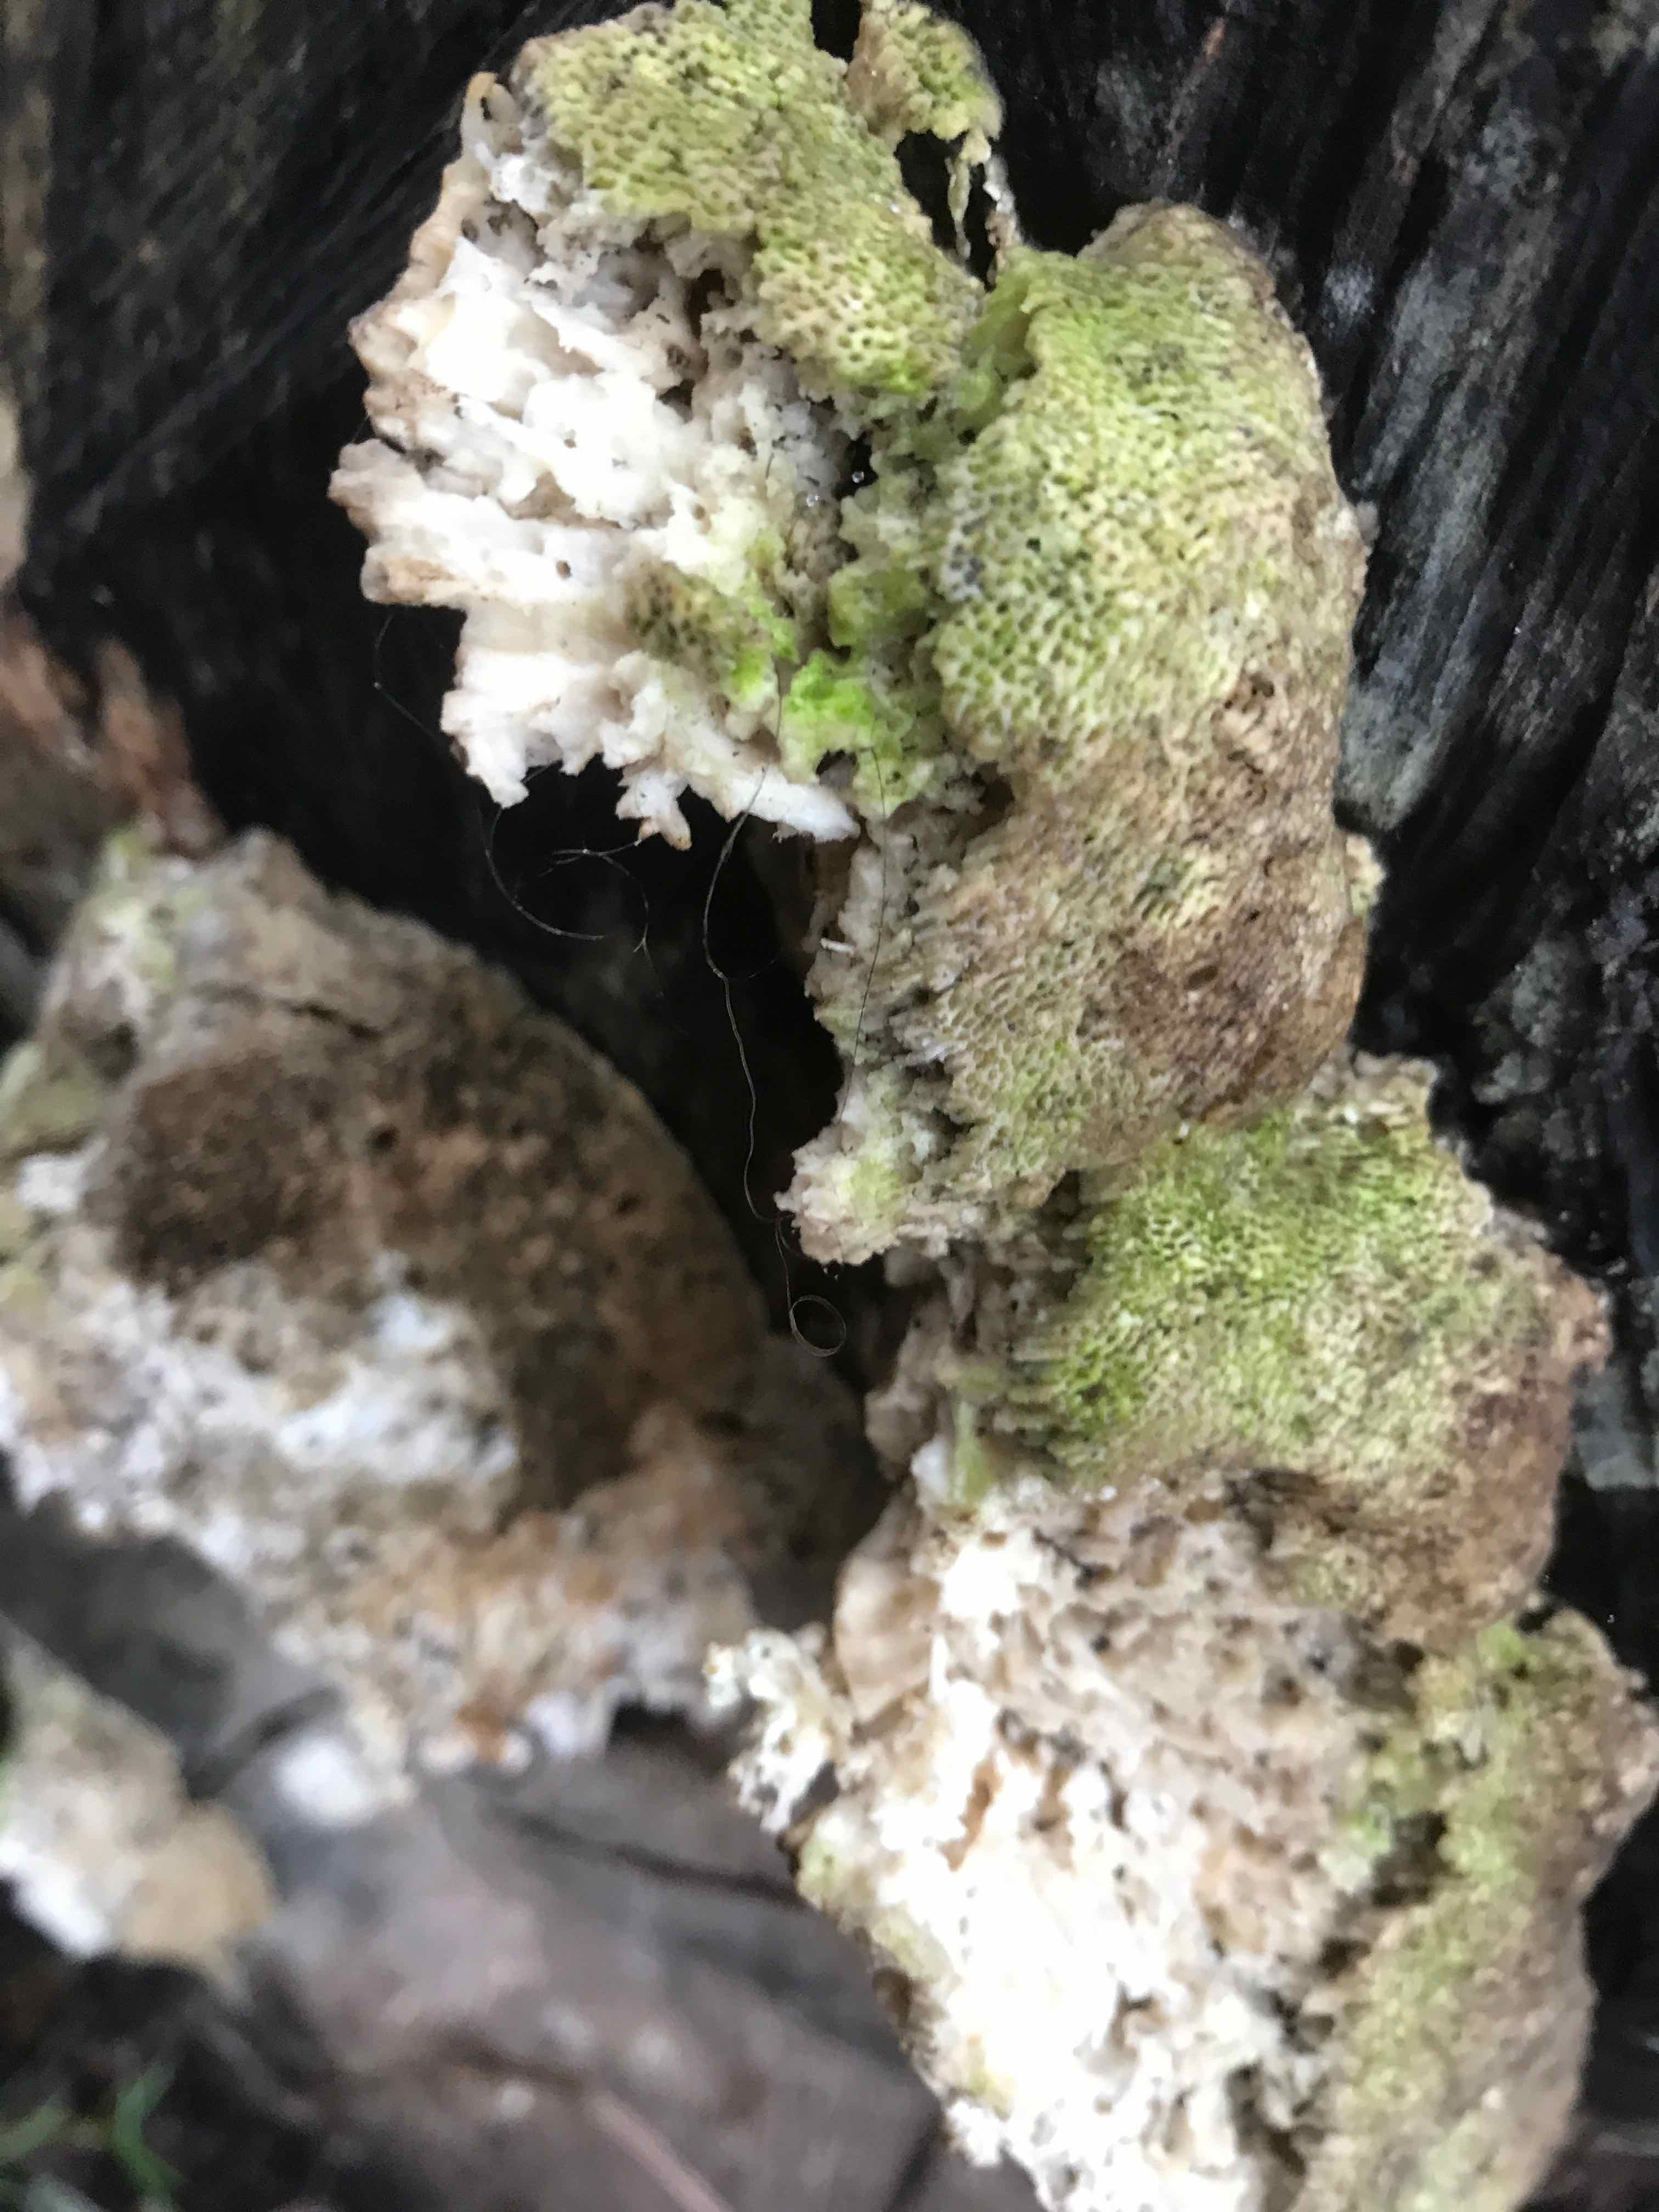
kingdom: Fungi
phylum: Basidiomycota
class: Agaricomycetes
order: Polyporales
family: Polyporaceae
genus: Trametes
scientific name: Trametes gibbosa
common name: puklet læderporesvamp
